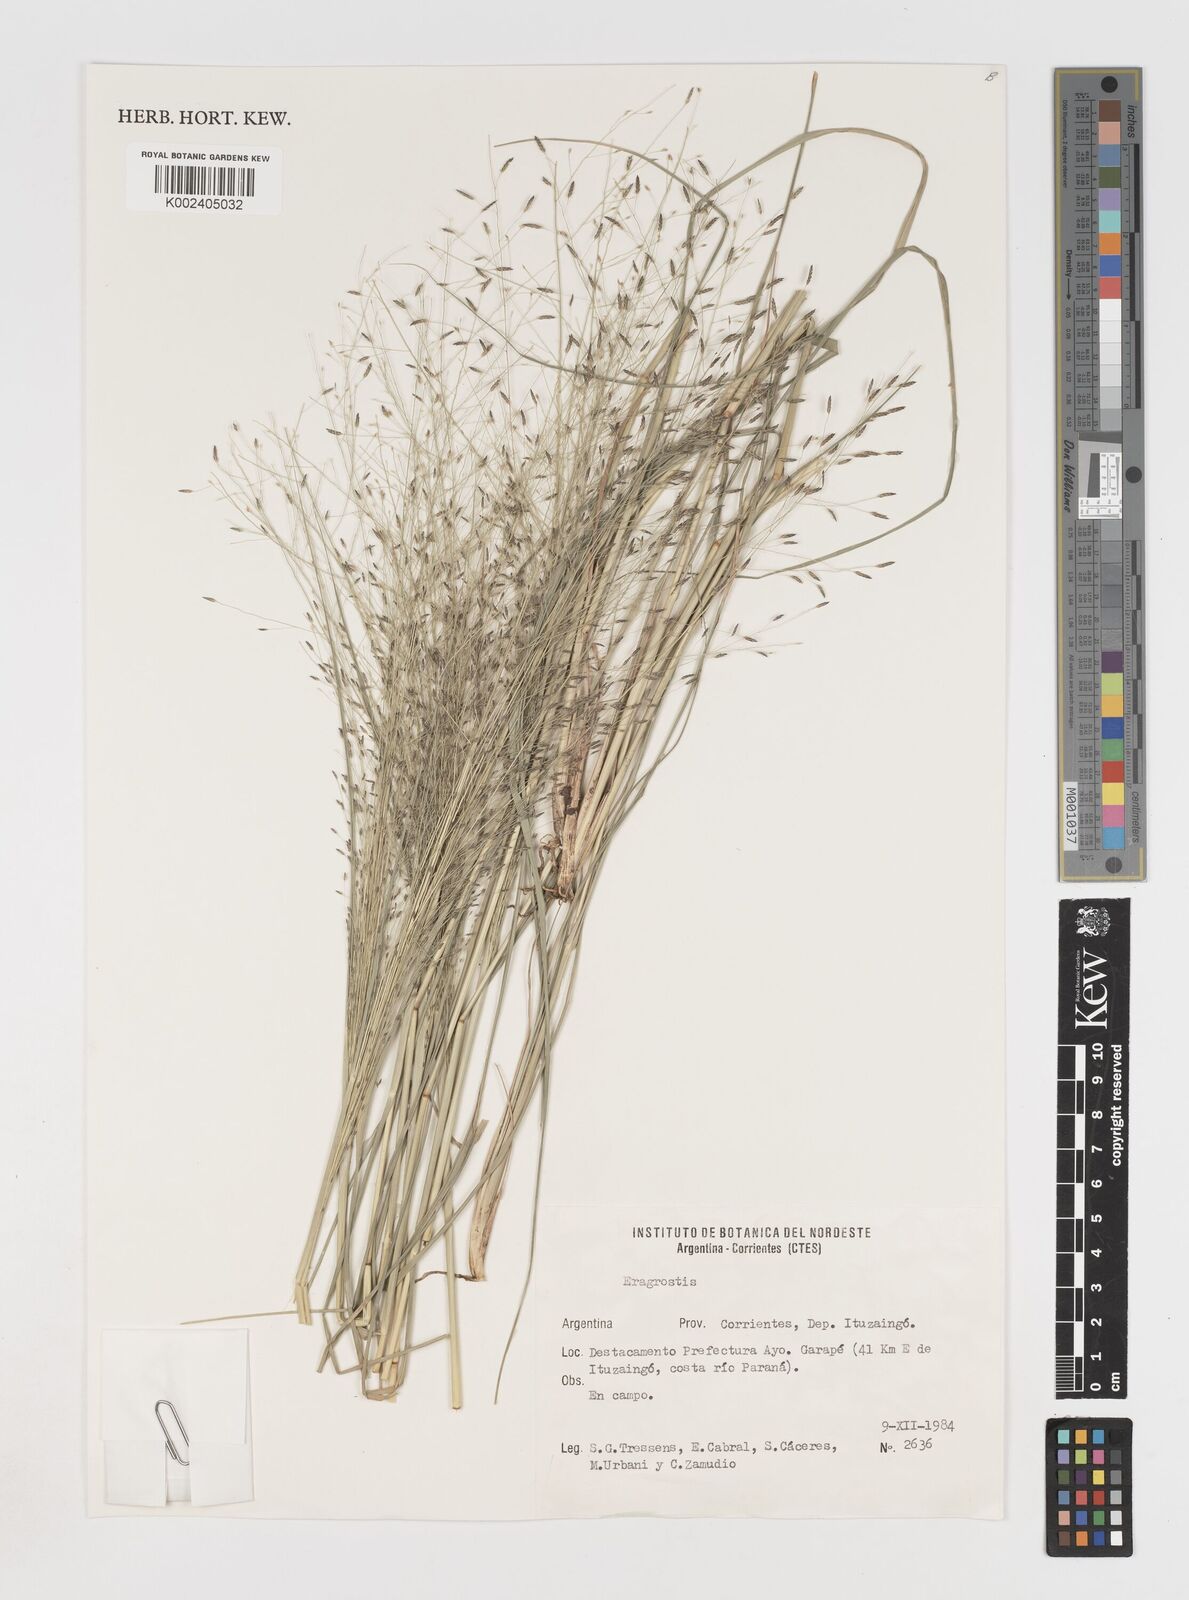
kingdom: Plantae
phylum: Tracheophyta
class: Liliopsida
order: Poales
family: Poaceae
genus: Eragrostis
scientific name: Eragrostis
